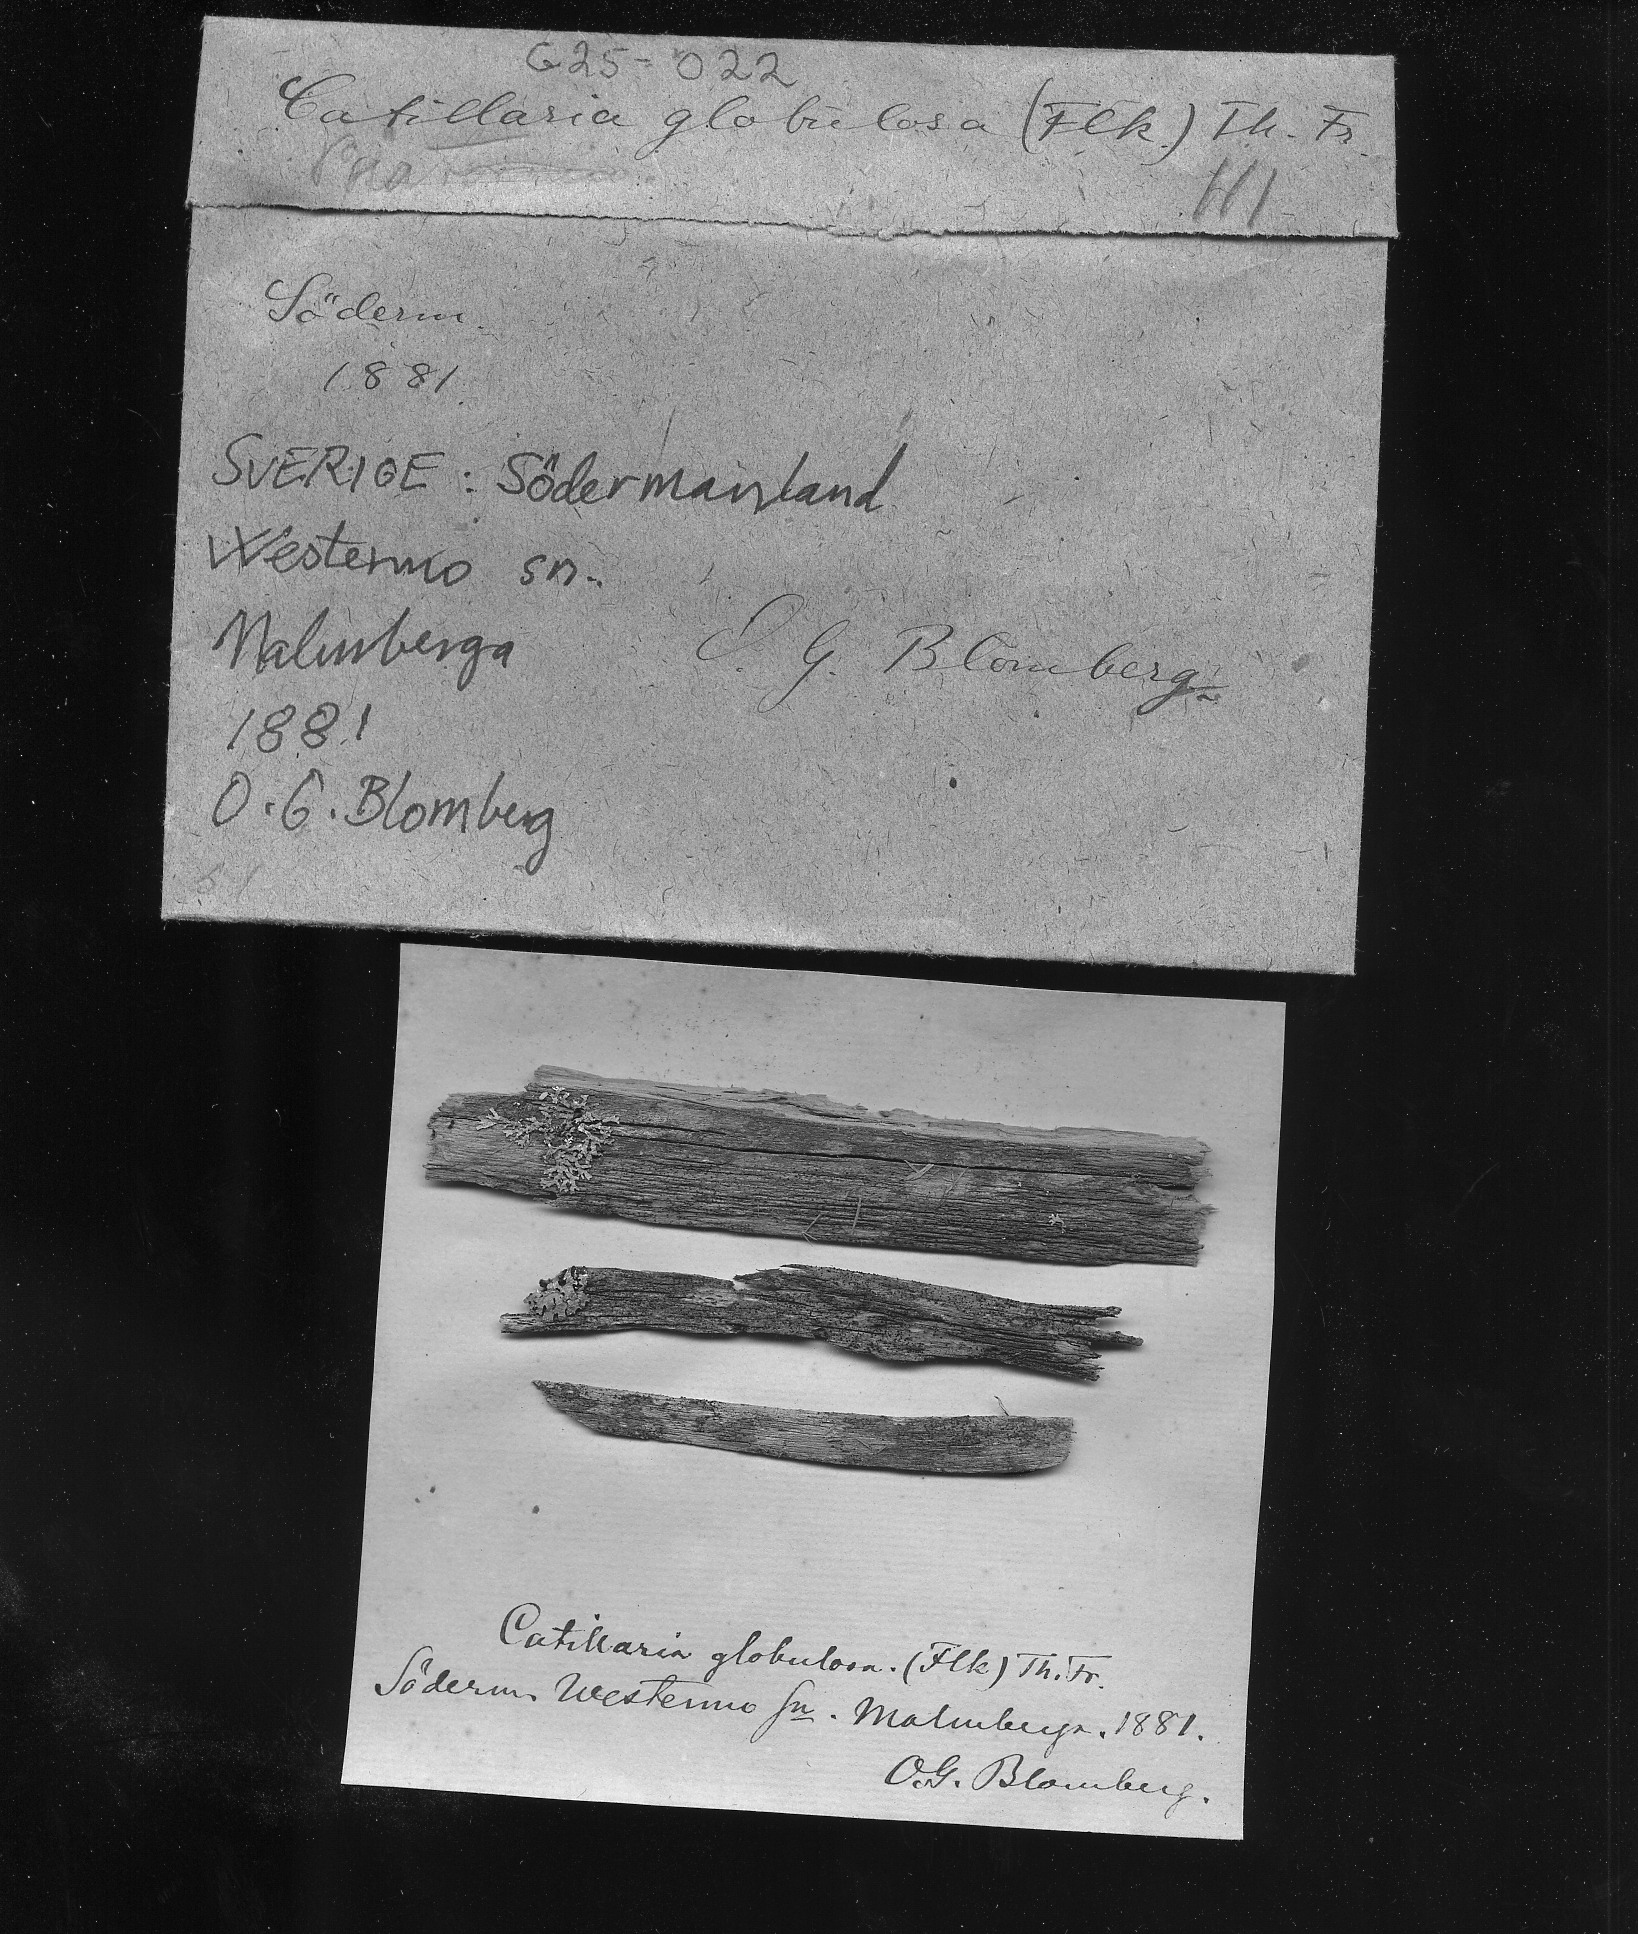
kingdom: Fungi
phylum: Ascomycota
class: Lecanoromycetes
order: Lecanorales
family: Ramalinaceae
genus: Biatora
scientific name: Biatora globulosa
